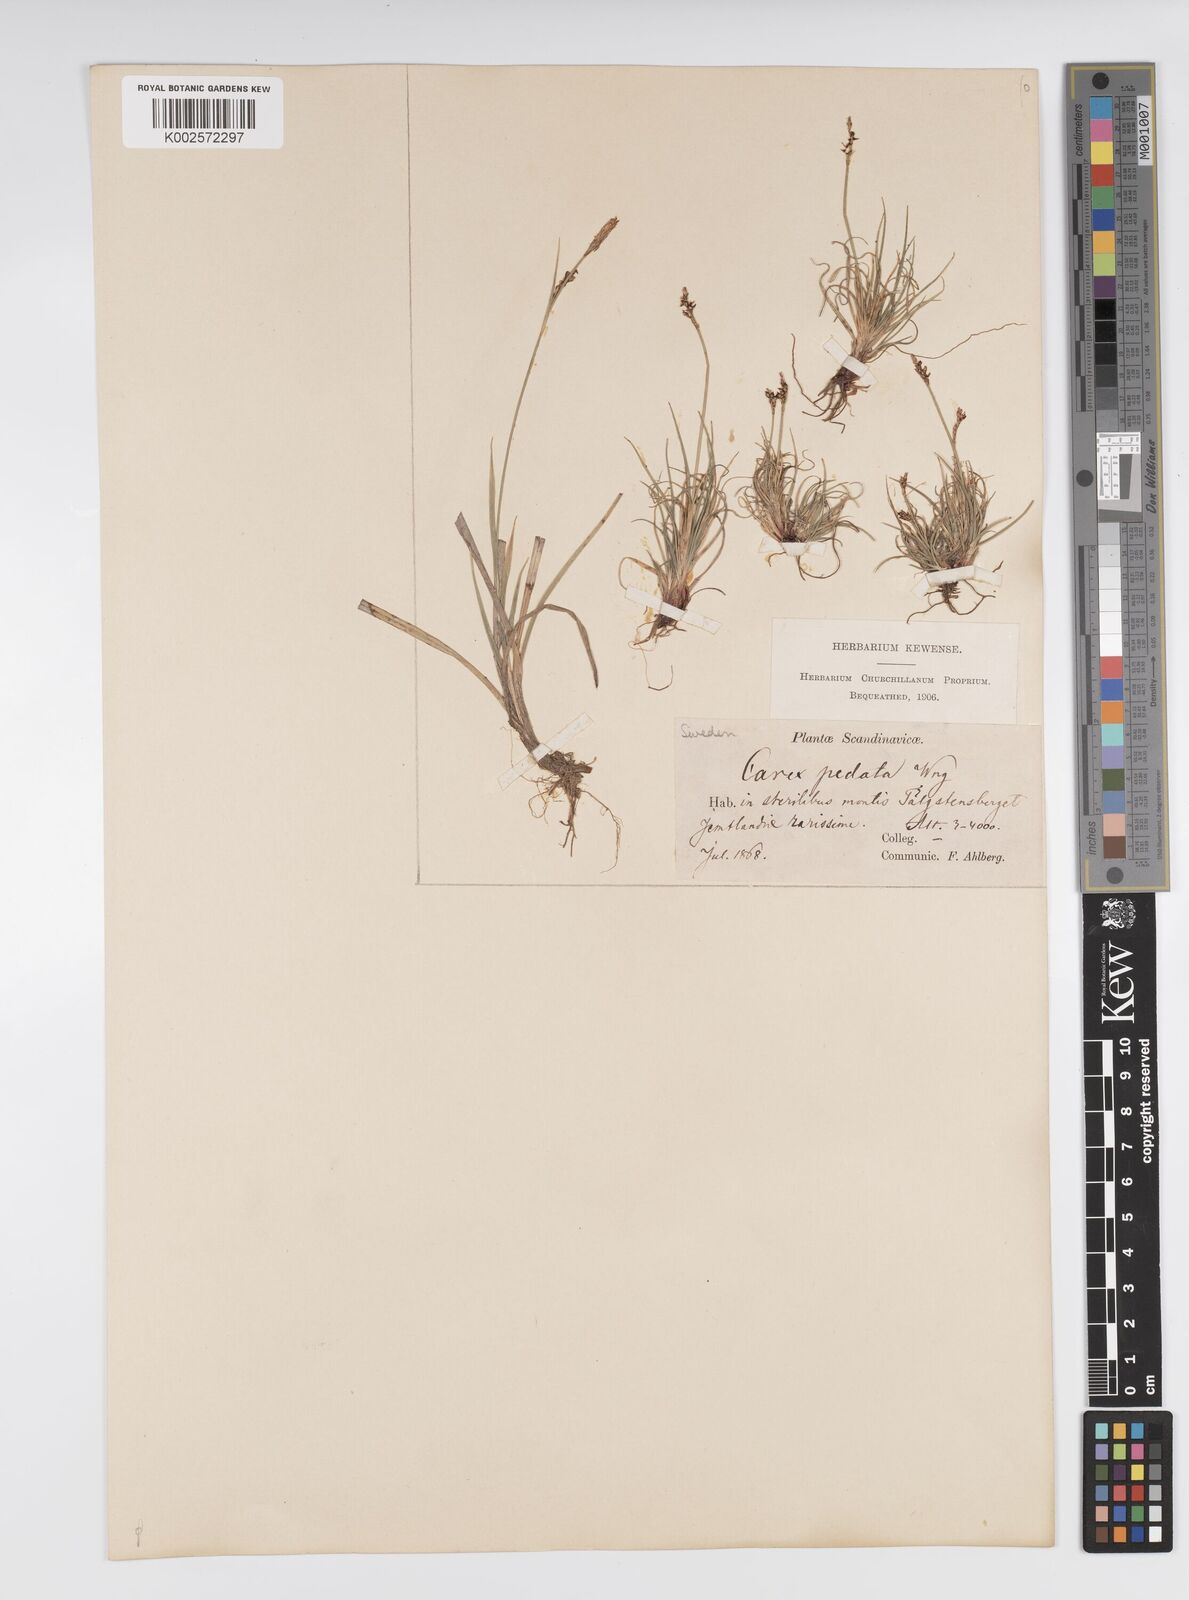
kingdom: Plantae
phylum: Tracheophyta
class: Liliopsida
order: Poales
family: Cyperaceae
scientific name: Cyperaceae
